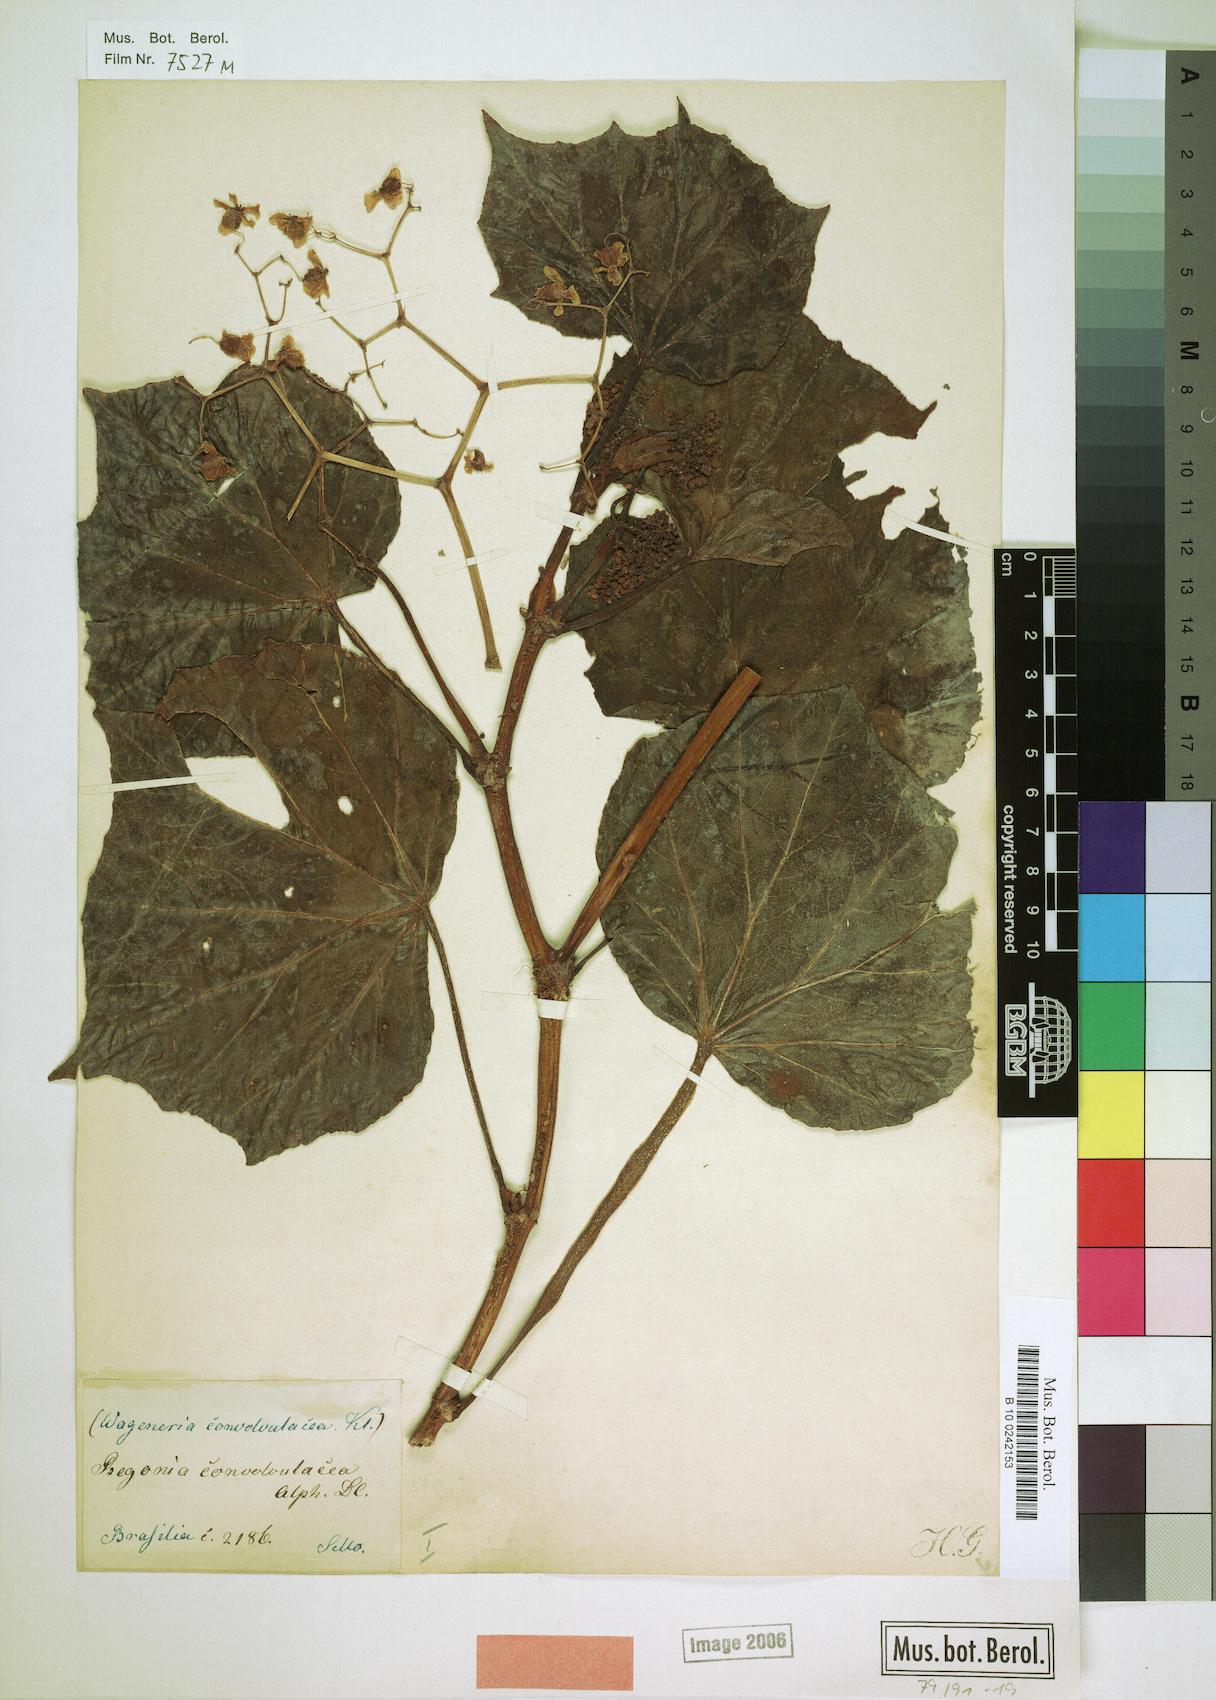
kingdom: Plantae
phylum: Tracheophyta
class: Magnoliopsida
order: Cucurbitales
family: Begoniaceae
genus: Begonia
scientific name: Begonia convolvulacea
